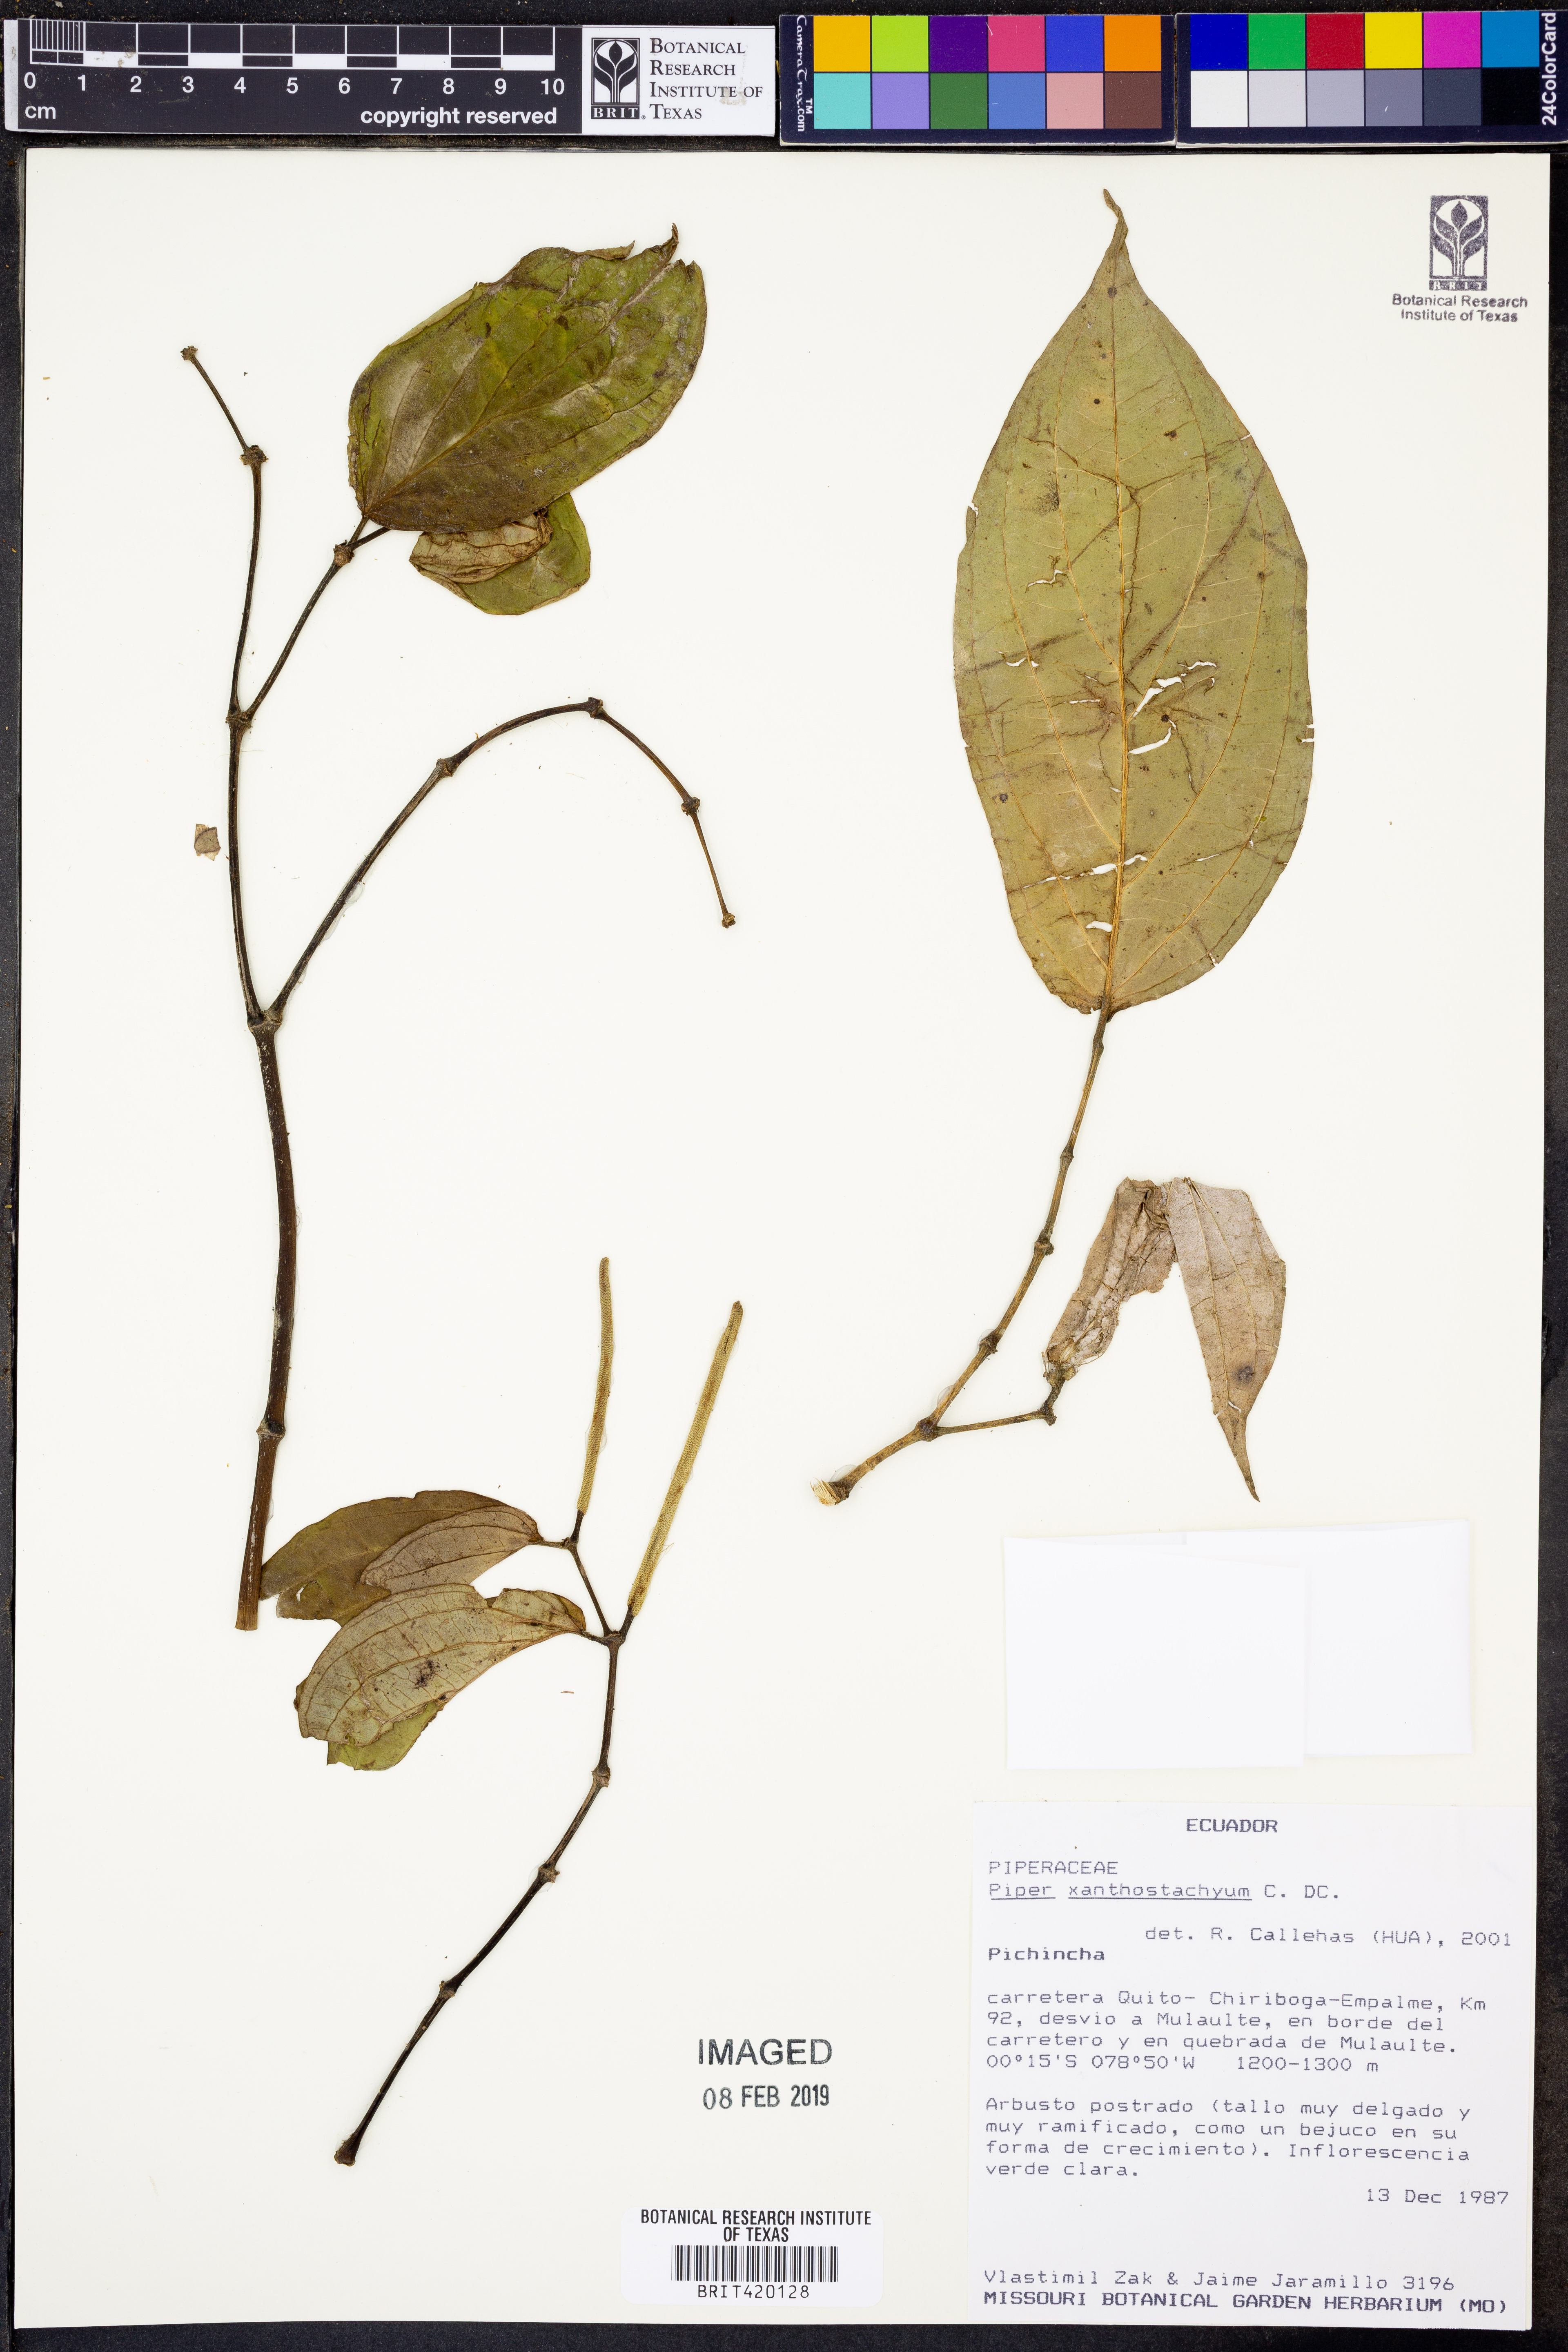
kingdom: Plantae
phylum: Tracheophyta
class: Magnoliopsida
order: Piperales
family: Piperaceae
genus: Piper
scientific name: Piper xanthostachyum
